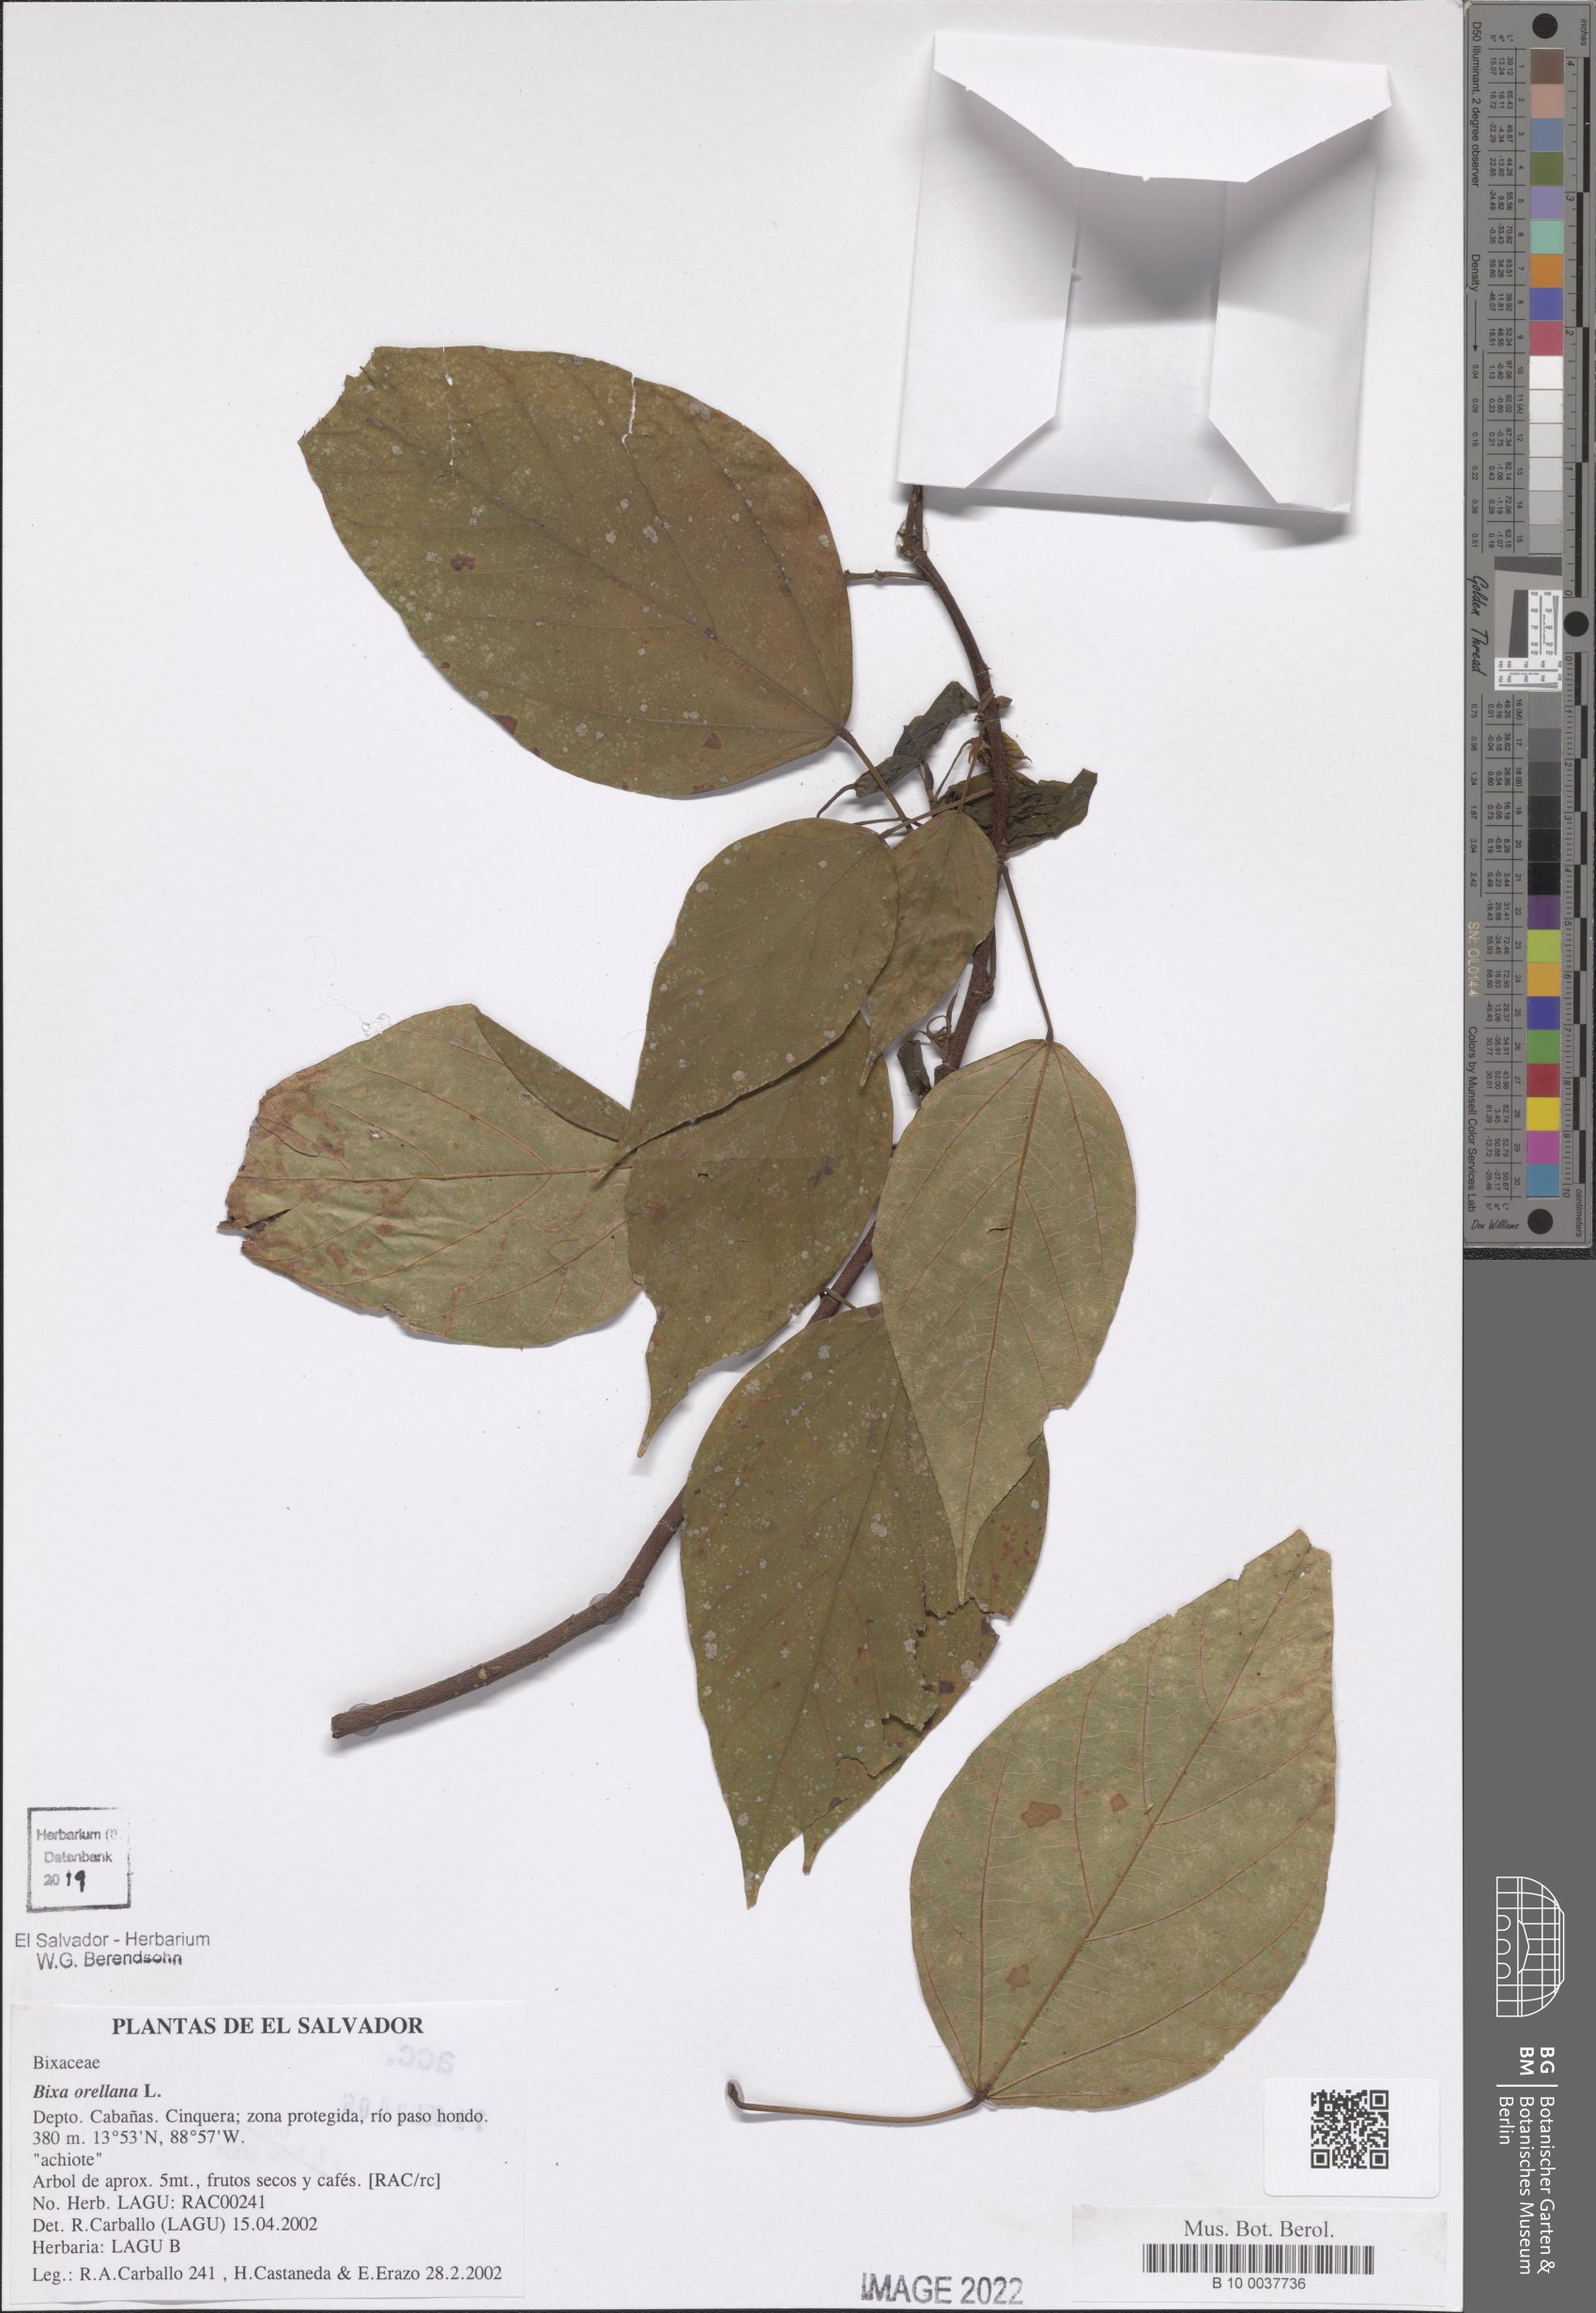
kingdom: Plantae
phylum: Tracheophyta
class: Magnoliopsida
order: Malvales
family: Bixaceae
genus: Bixa
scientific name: Bixa orellana
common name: Lipsticktree
